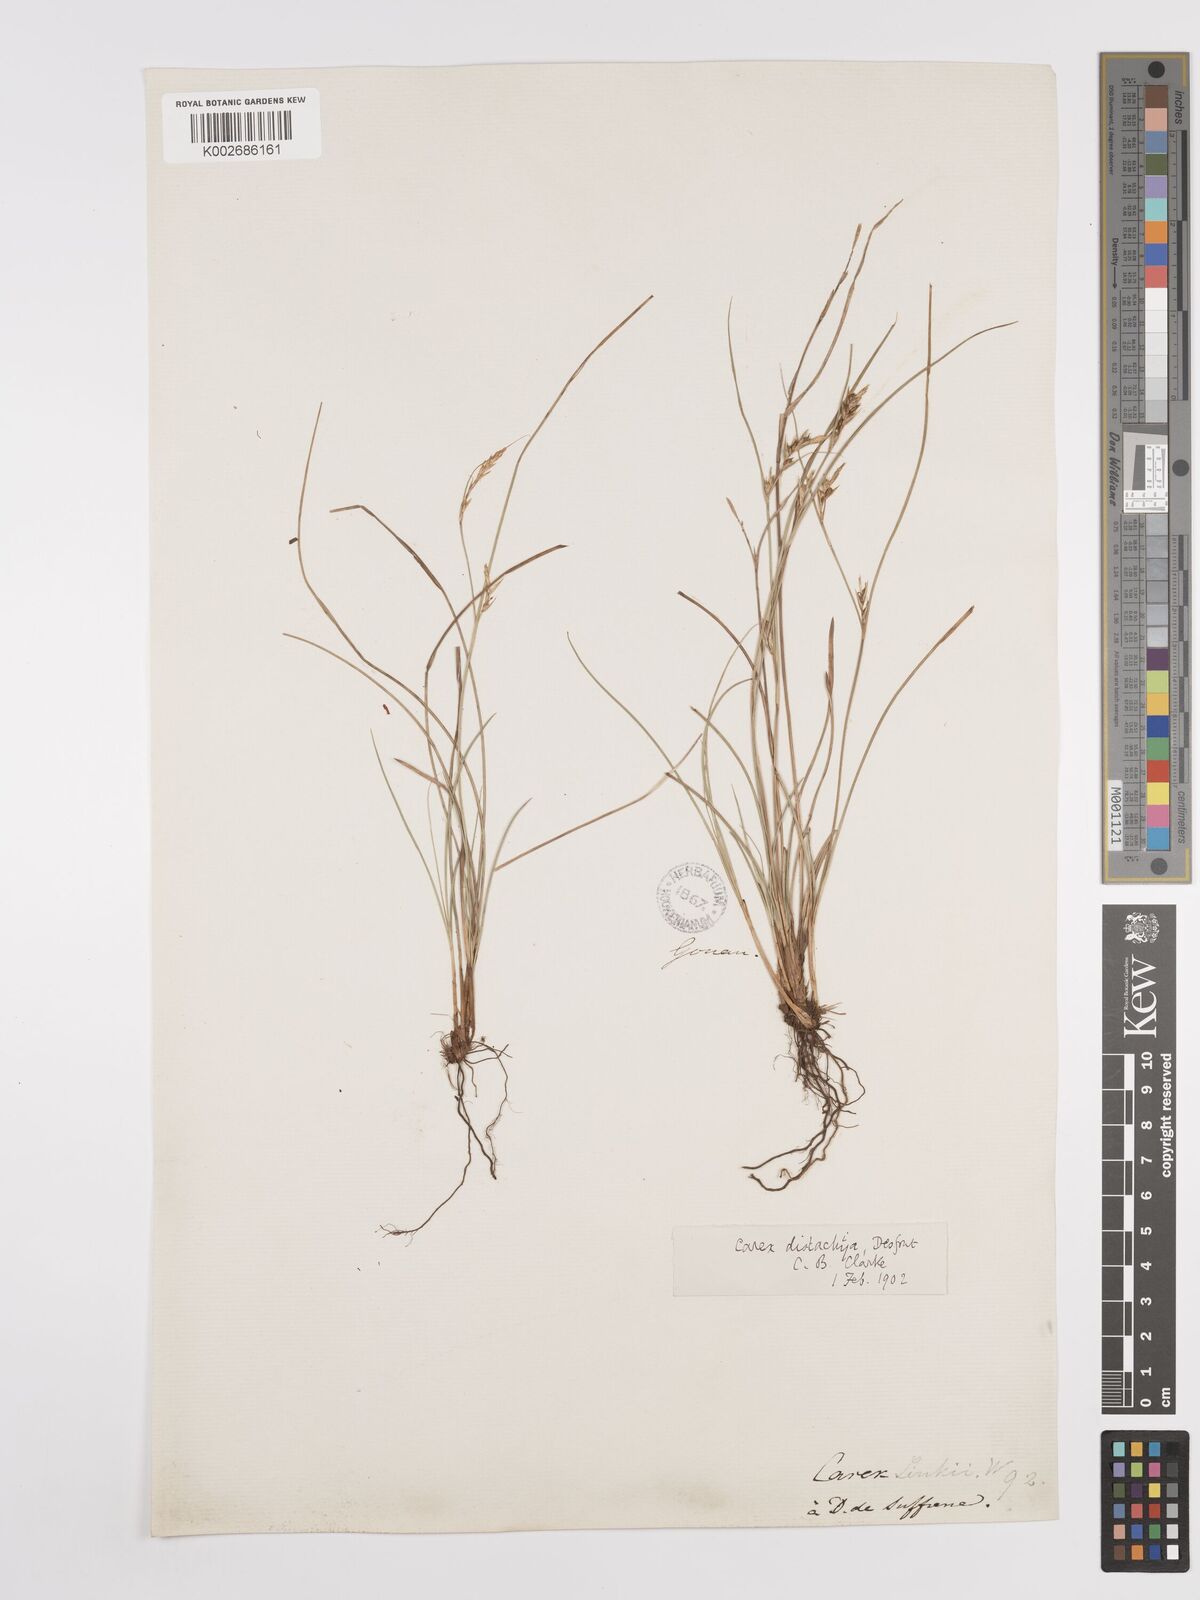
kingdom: Plantae
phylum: Tracheophyta
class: Liliopsida
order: Poales
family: Cyperaceae
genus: Carex
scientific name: Carex distachya
